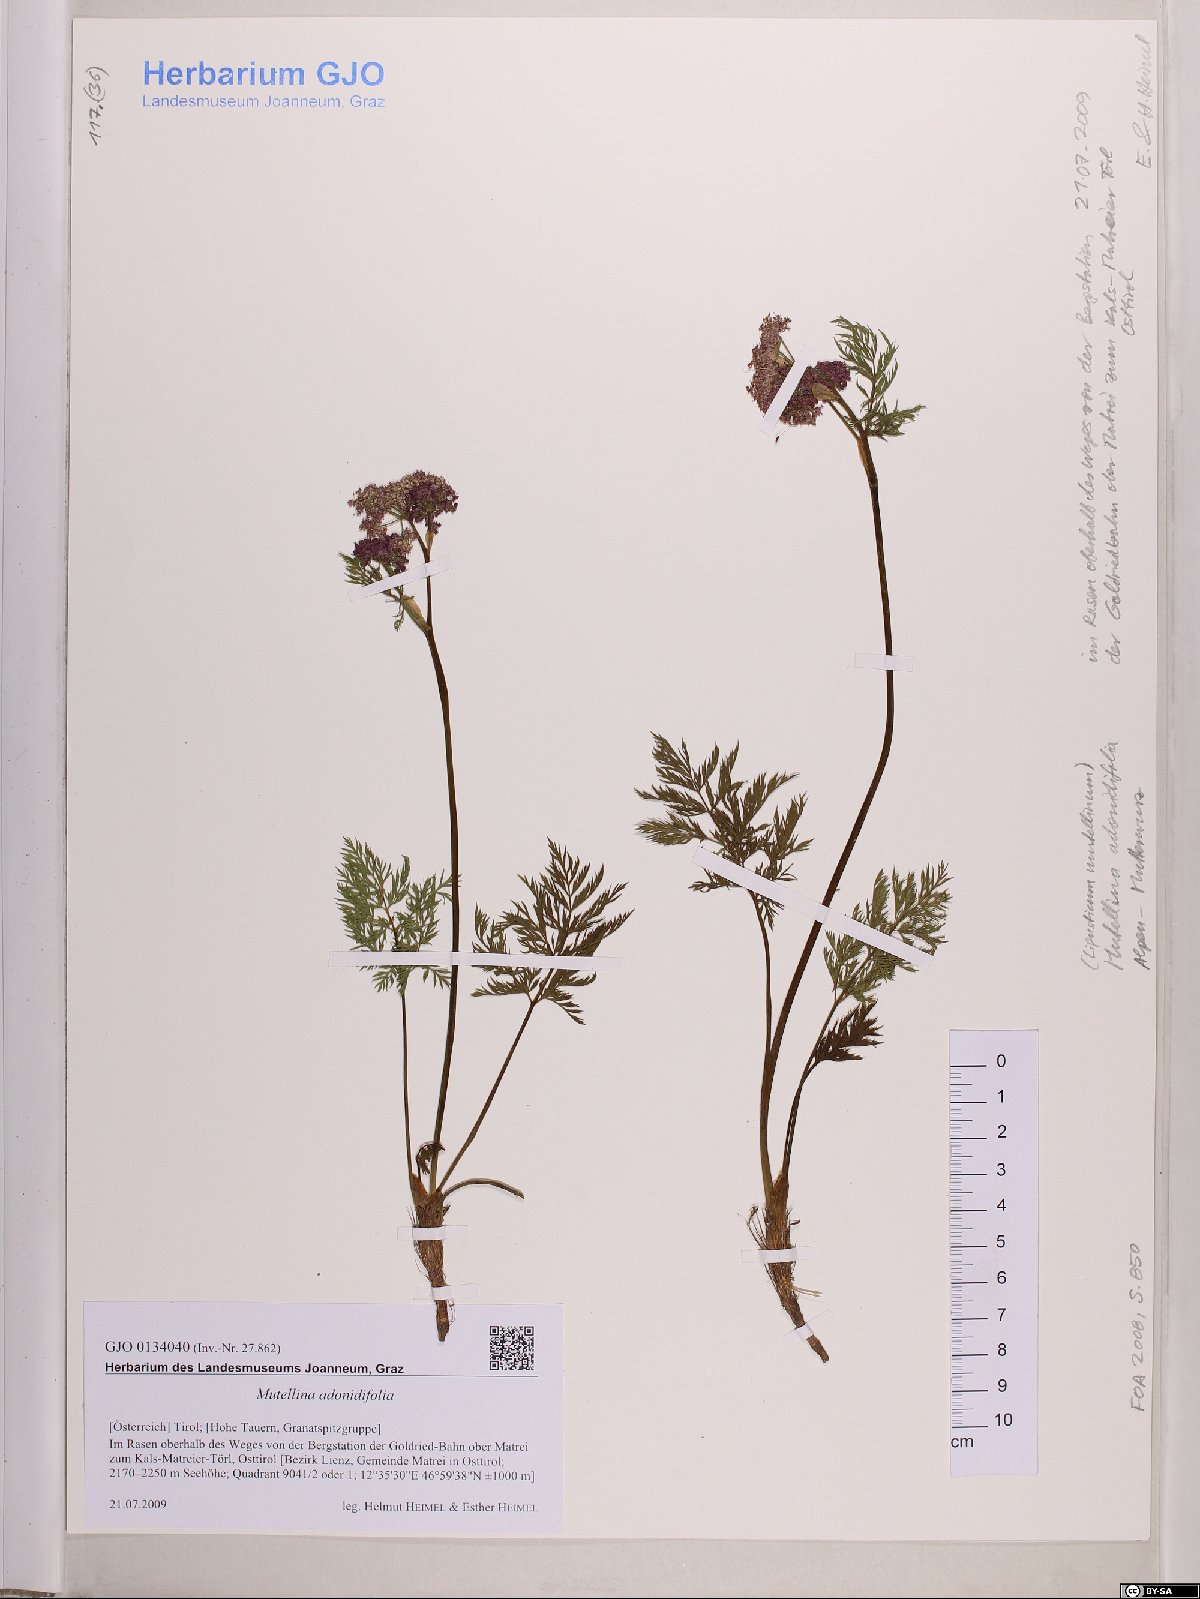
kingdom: Plantae
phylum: Tracheophyta
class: Magnoliopsida
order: Apiales
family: Apiaceae
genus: Mutellina
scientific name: Mutellina adonidifolia
